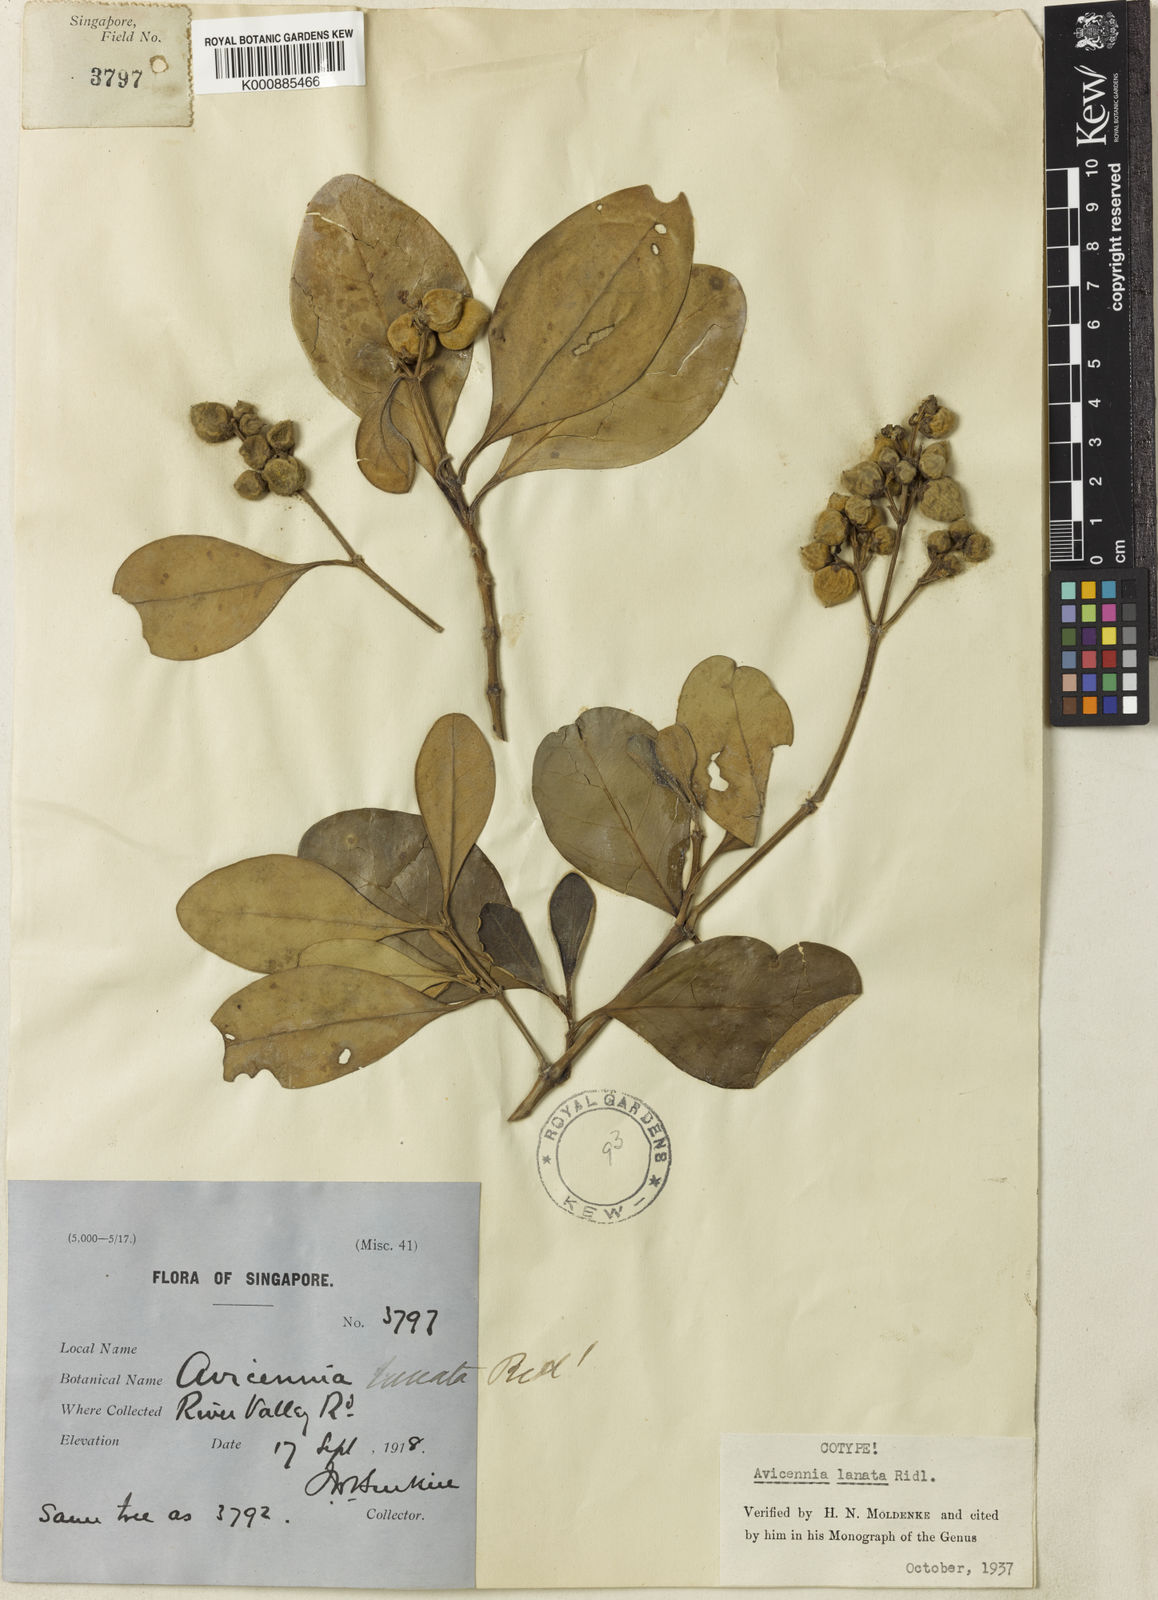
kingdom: Plantae
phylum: Tracheophyta
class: Magnoliopsida
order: Lamiales
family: Acanthaceae
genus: Avicennia
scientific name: Avicennia marina
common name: Gray mangrove
